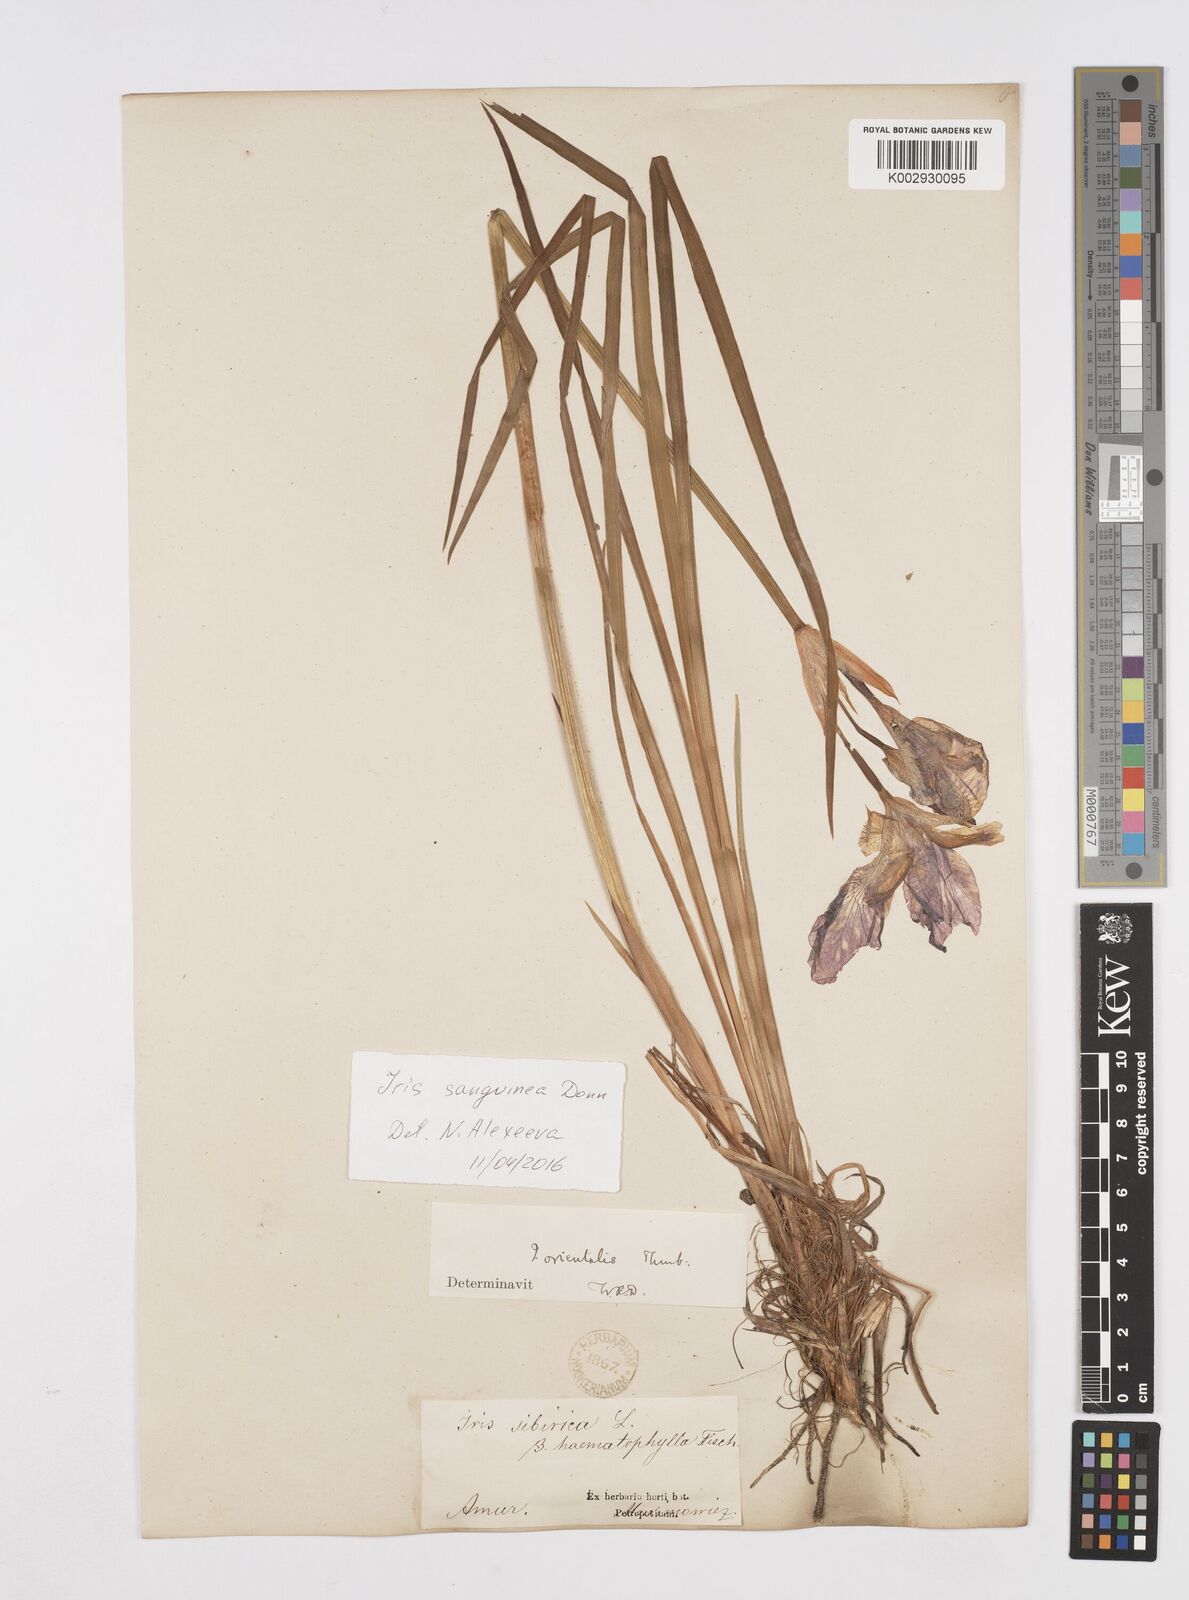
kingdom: Plantae
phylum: Tracheophyta
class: Liliopsida
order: Asparagales
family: Iridaceae
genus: Iris
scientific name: Iris sanguinea
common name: Blood iris
